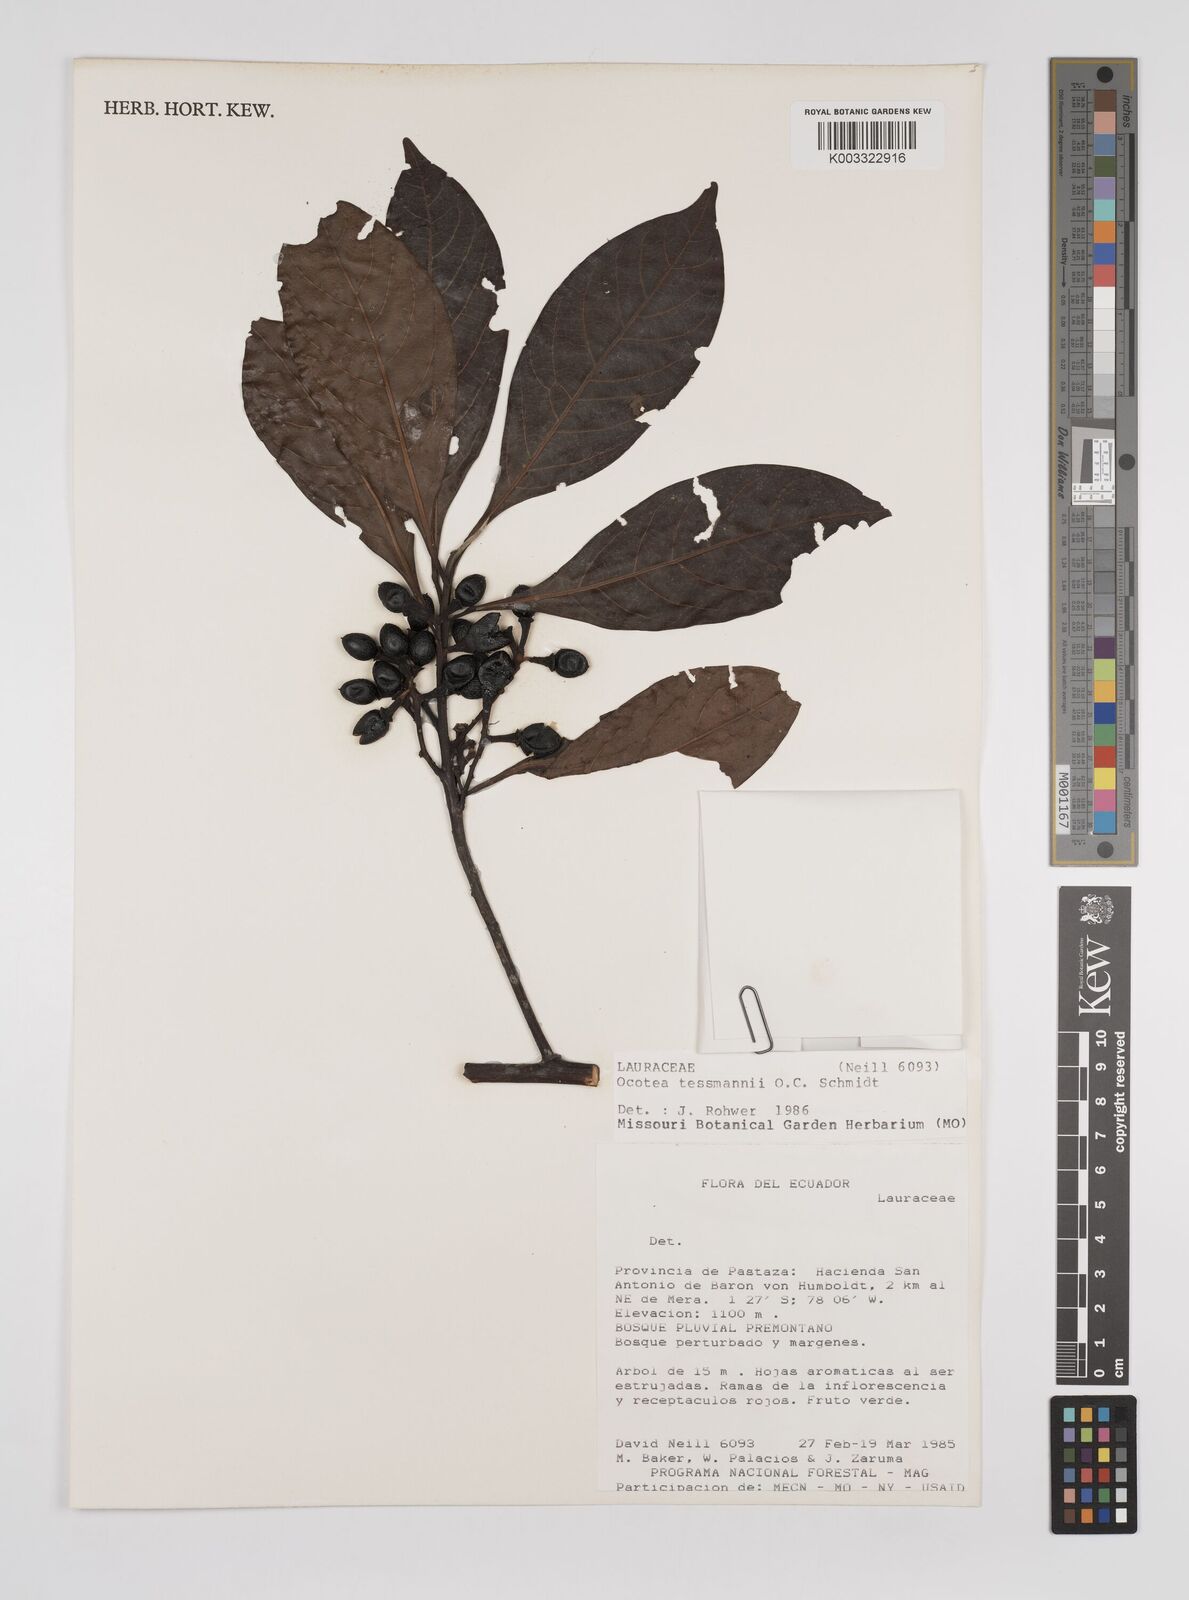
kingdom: Plantae
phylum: Tracheophyta
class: Magnoliopsida
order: Laurales
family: Lauraceae
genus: Ocotea
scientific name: Ocotea tessmannii
